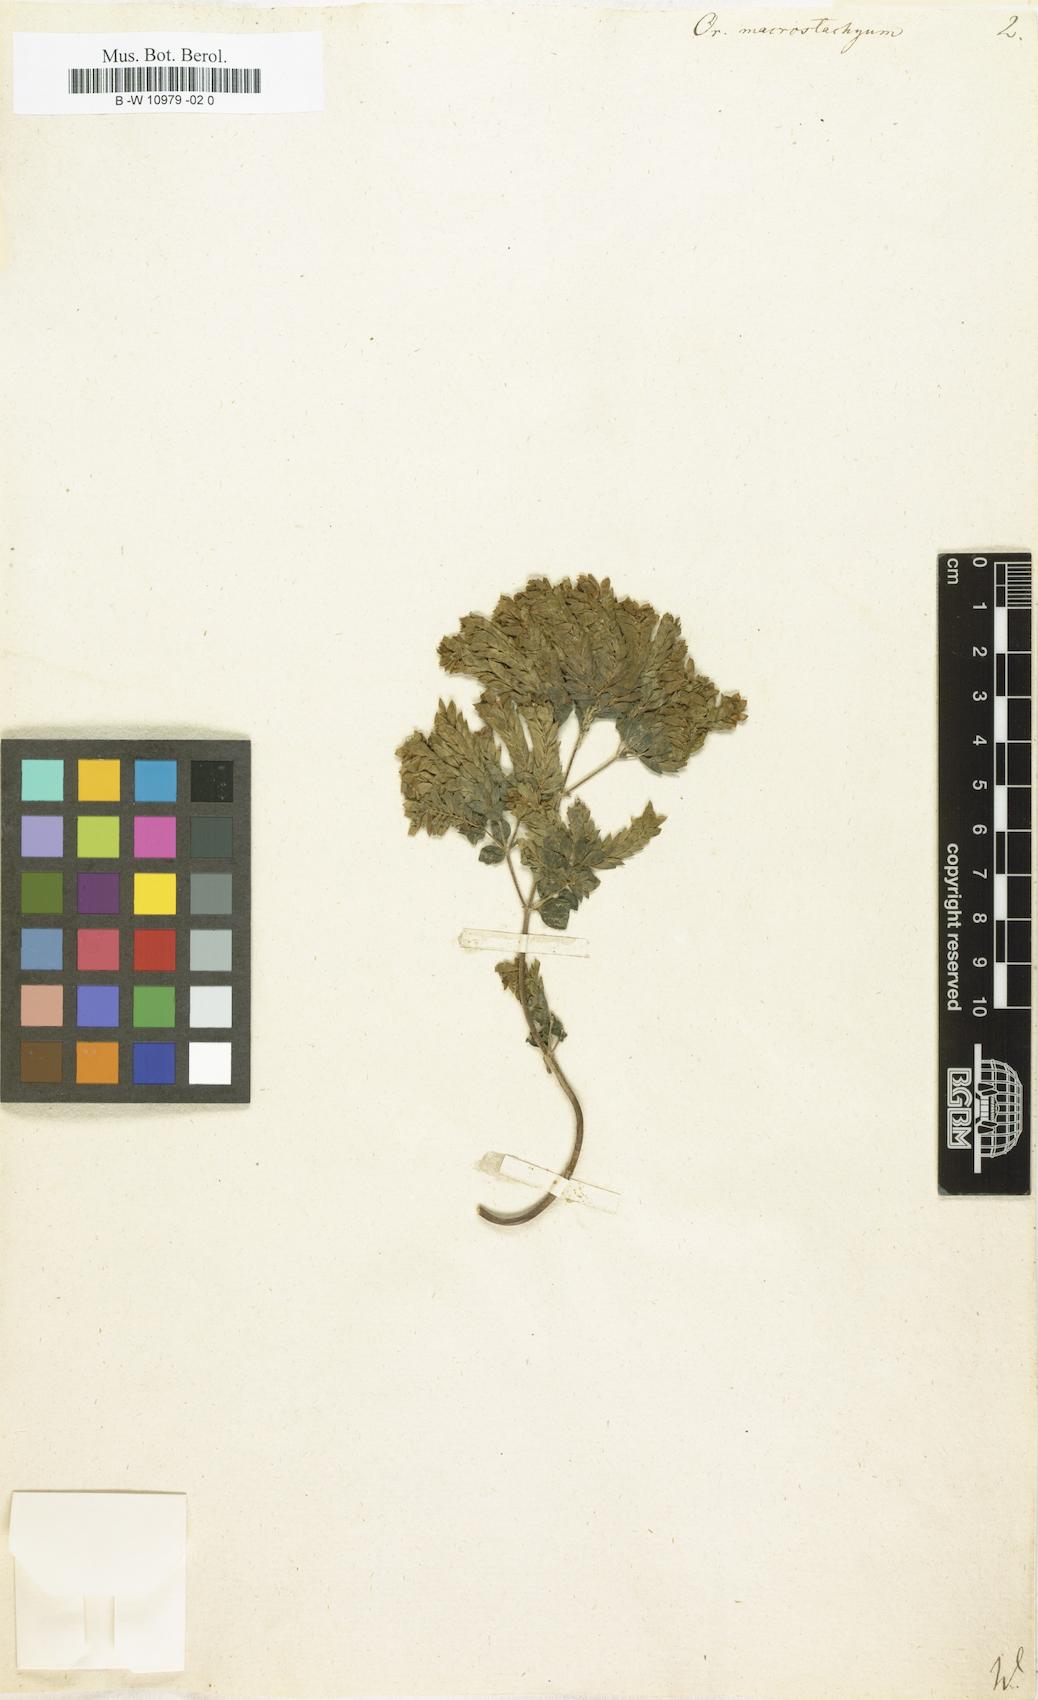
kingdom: Plantae
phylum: Tracheophyta
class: Magnoliopsida
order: Lamiales
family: Lamiaceae
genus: Origanum
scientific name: Origanum vulgare
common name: Wild marjoram
